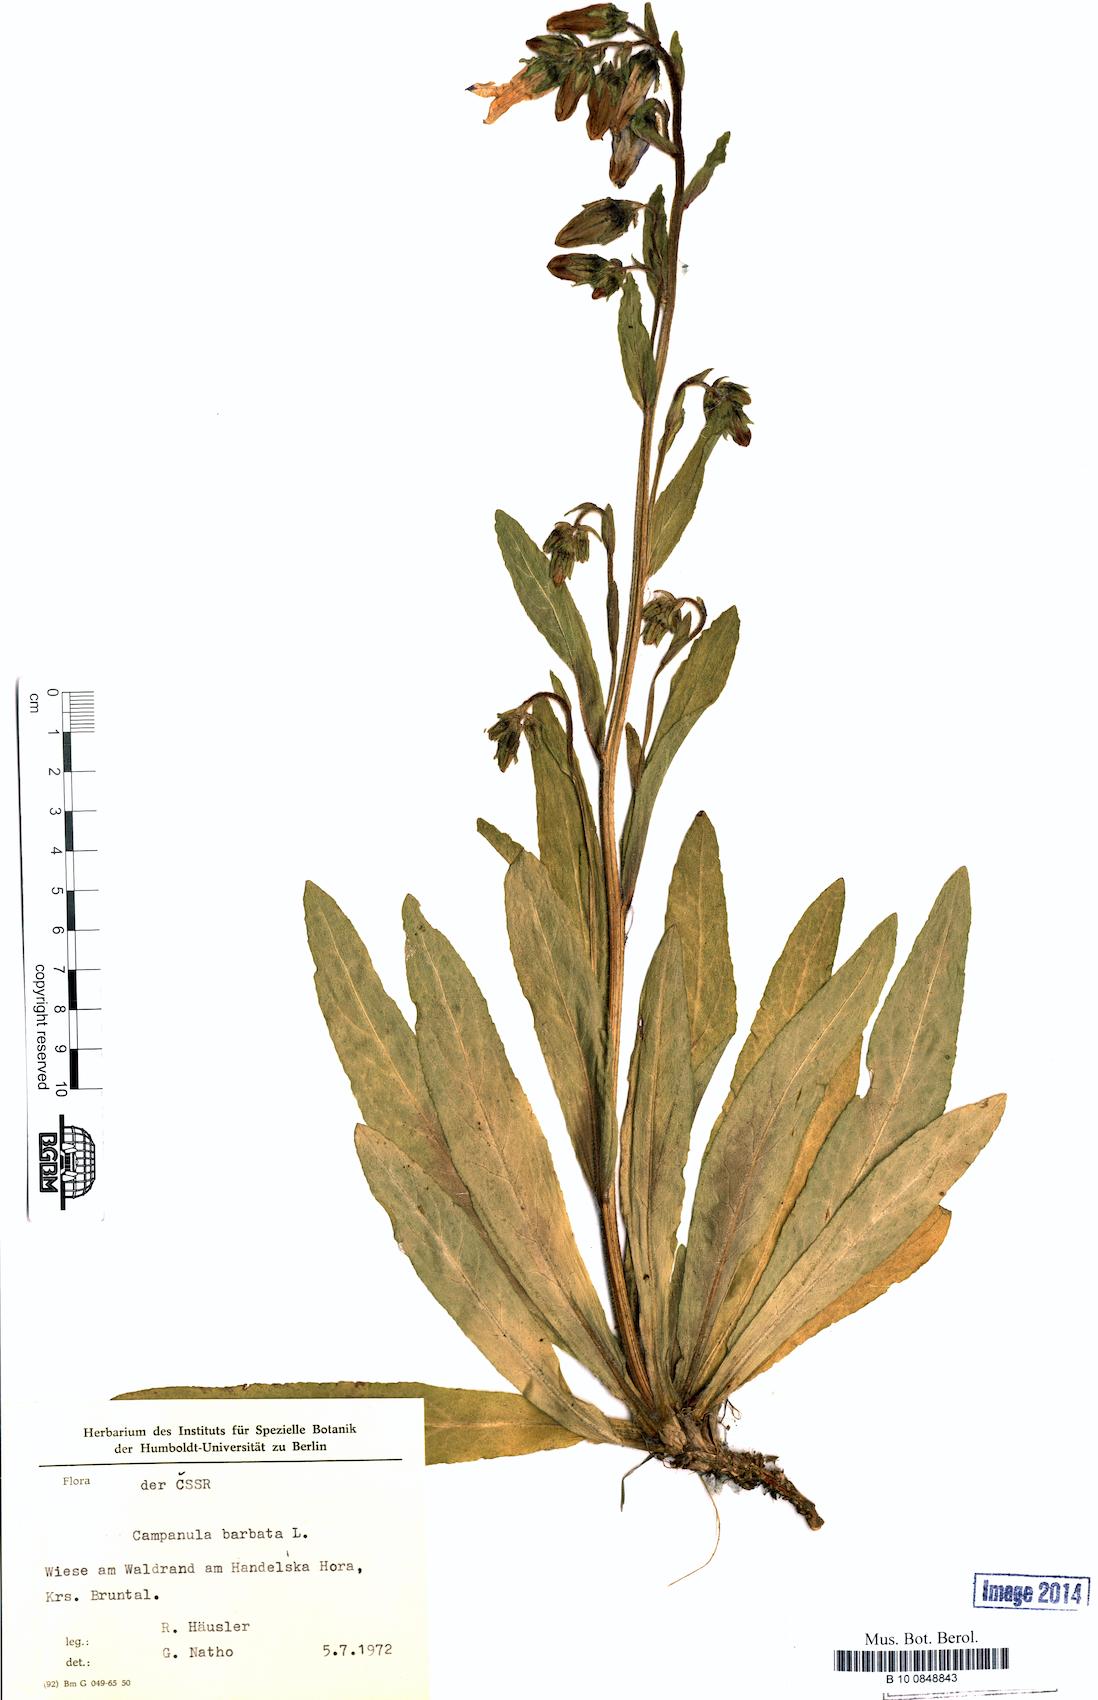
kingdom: Plantae
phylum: Tracheophyta
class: Magnoliopsida
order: Asterales
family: Campanulaceae
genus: Campanula
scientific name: Campanula barbata
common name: Bearded bellflower
